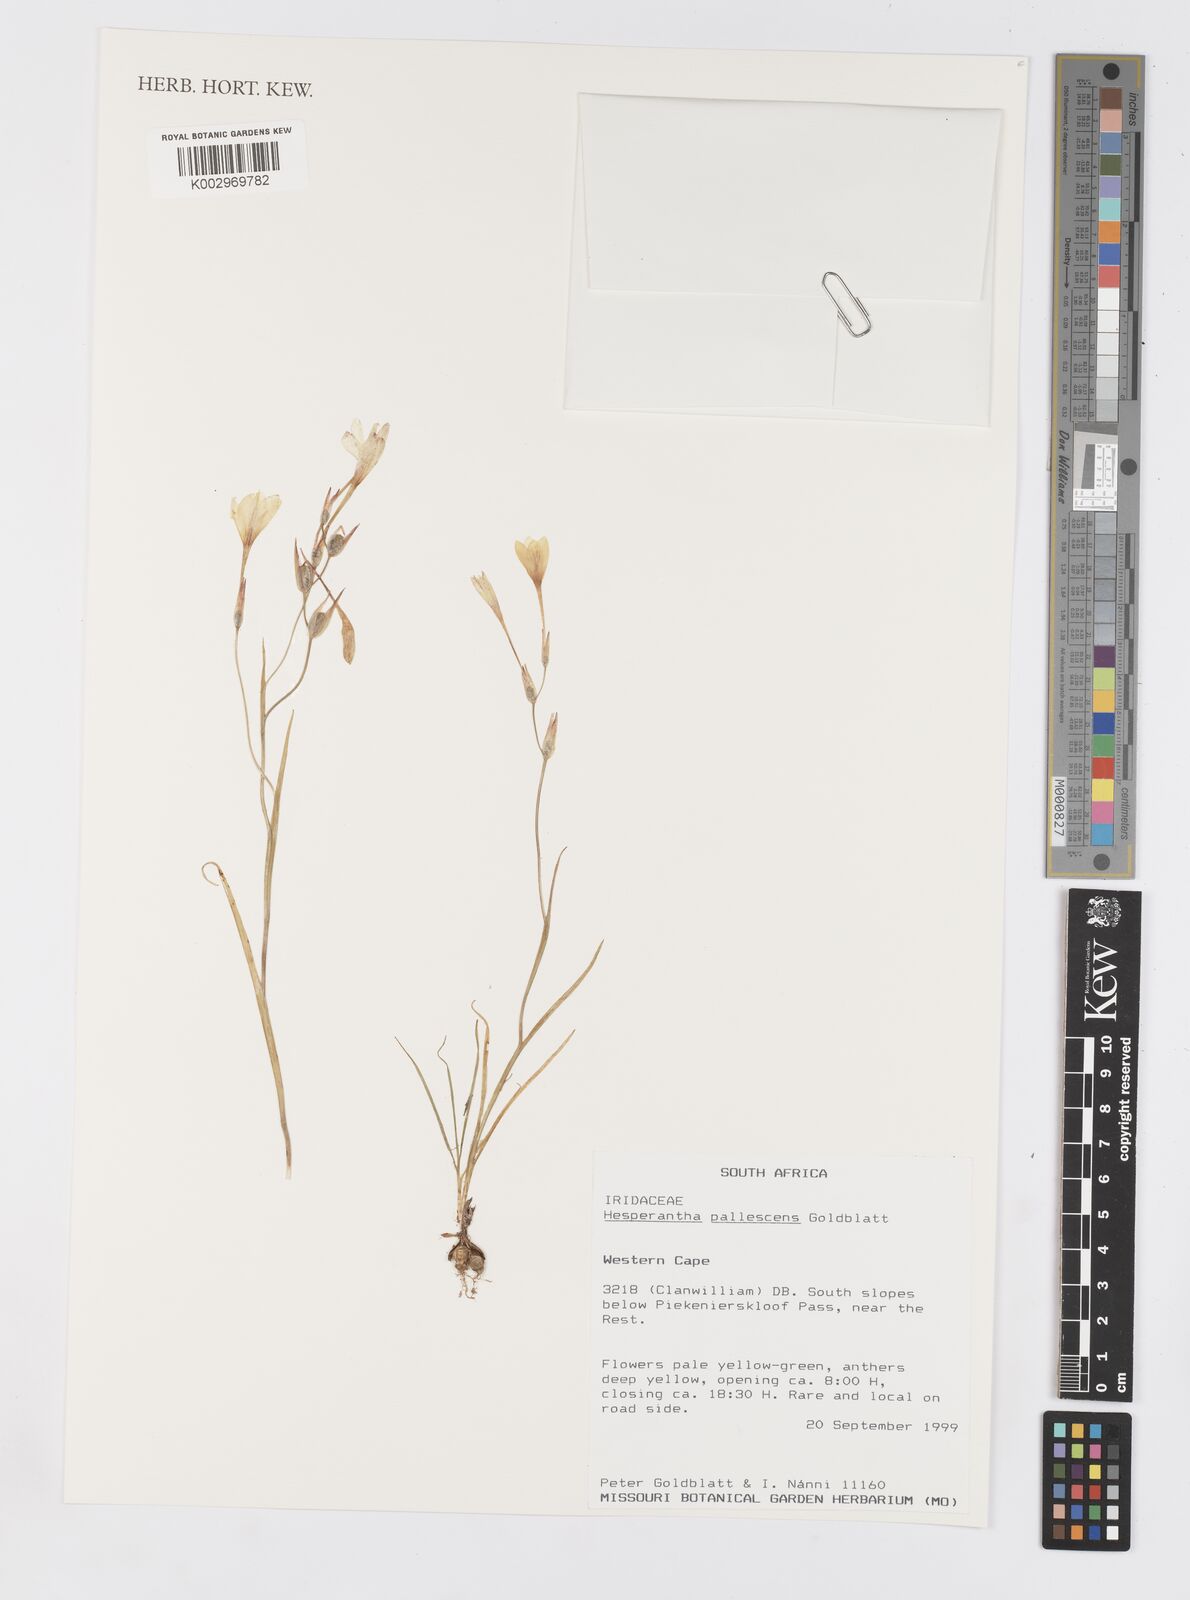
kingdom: Plantae
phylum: Tracheophyta
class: Liliopsida
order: Asparagales
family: Iridaceae
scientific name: Iridaceae
